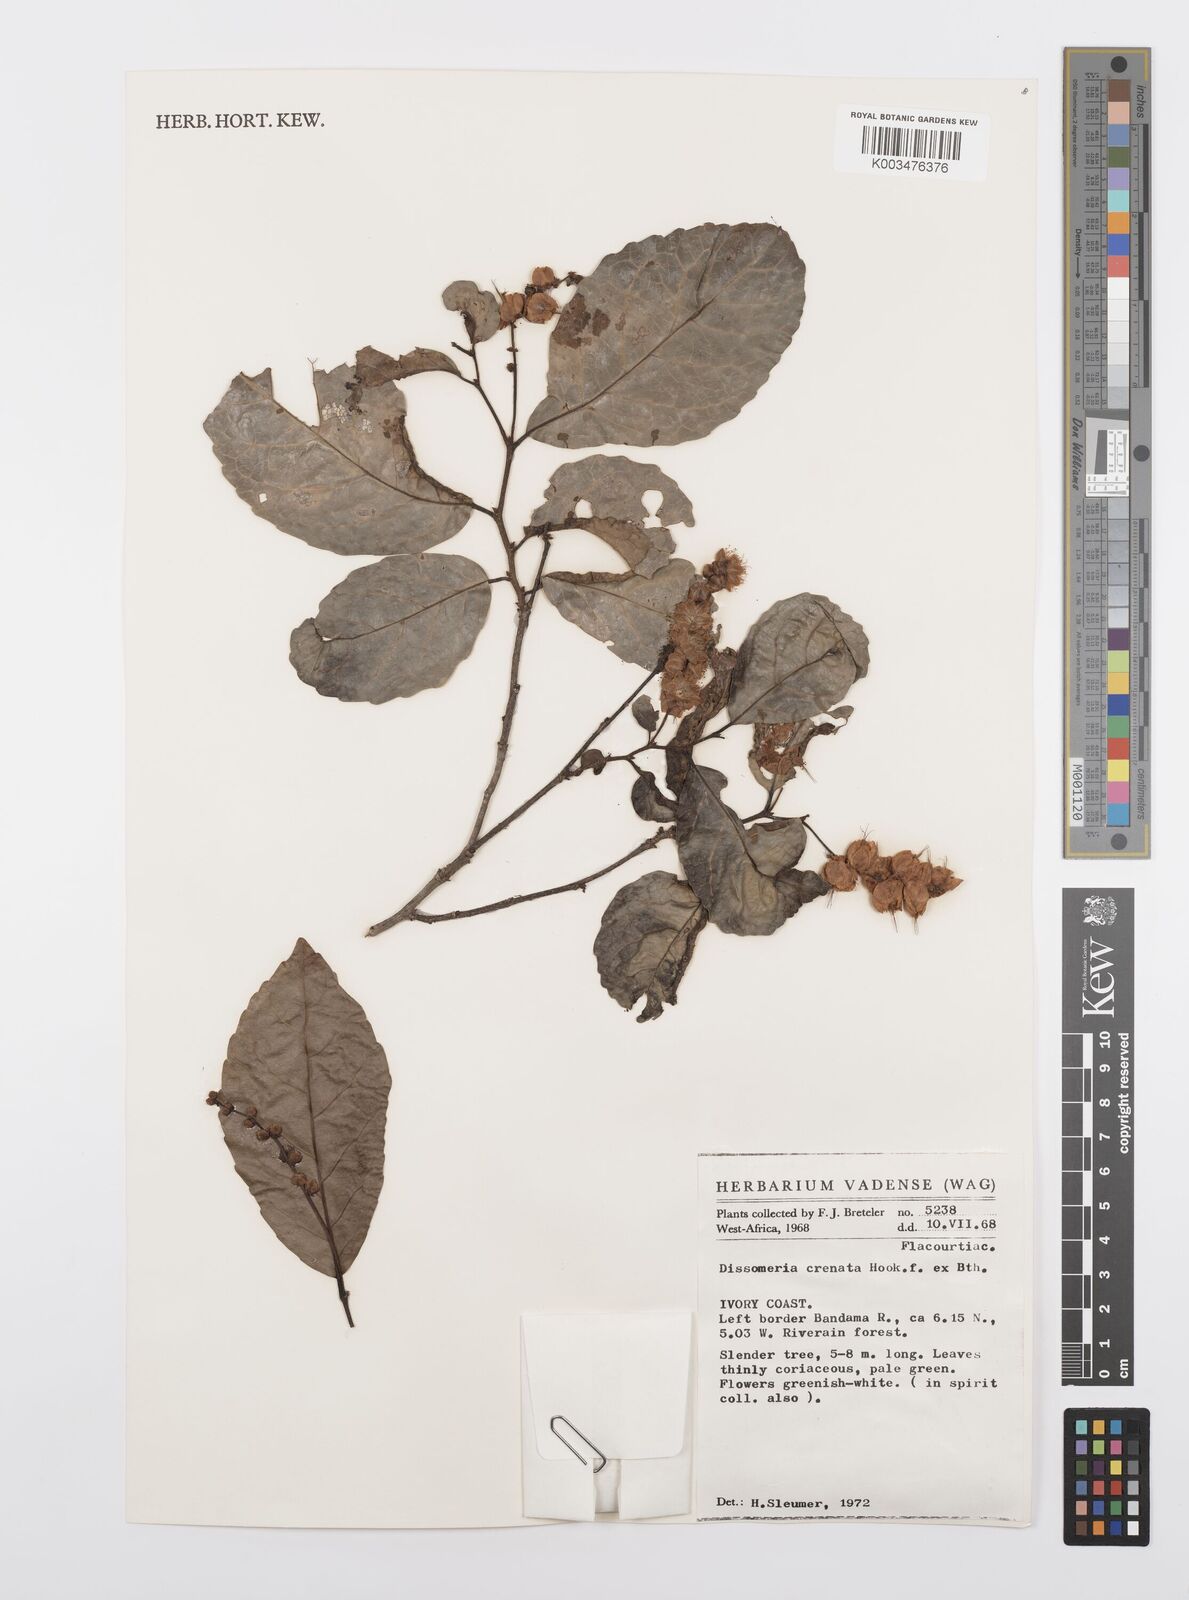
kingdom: Plantae
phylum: Tracheophyta
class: Magnoliopsida
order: Malpighiales
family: Salicaceae
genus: Dissomeria
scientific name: Dissomeria crenata
